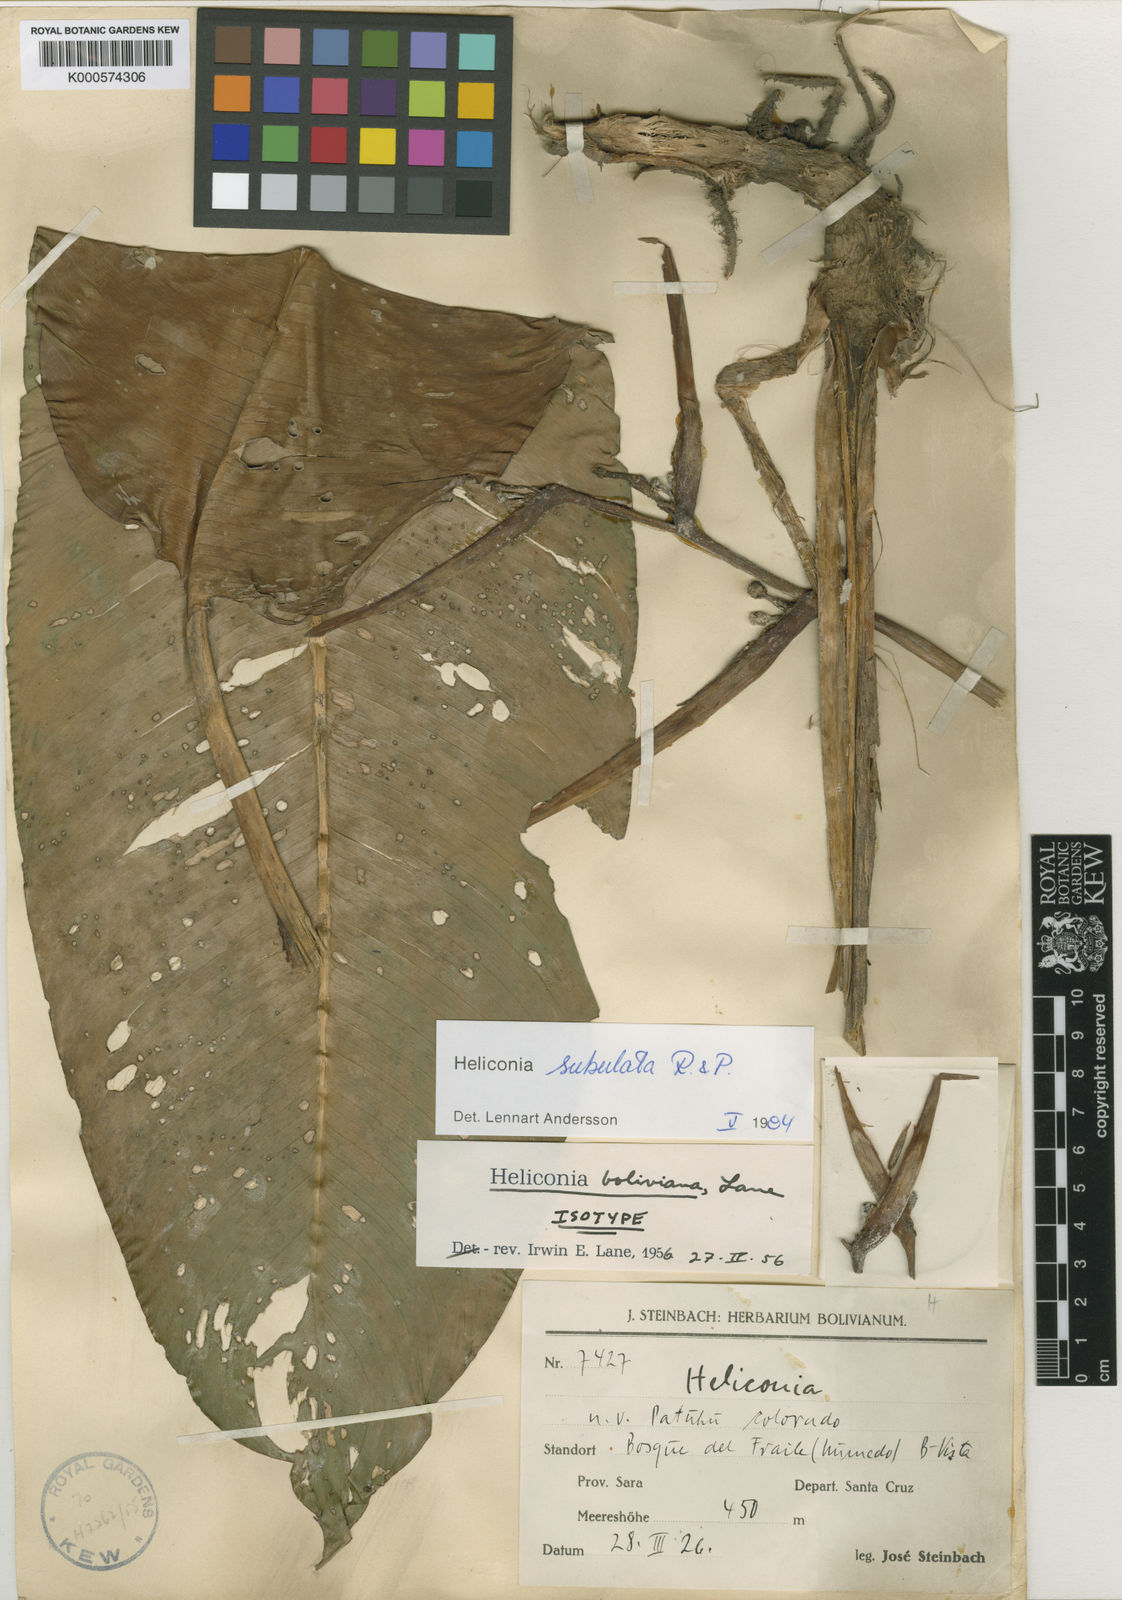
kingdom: Plantae
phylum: Tracheophyta
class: Liliopsida
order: Zingiberales
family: Heliconiaceae
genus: Heliconia
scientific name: Heliconia subulata
